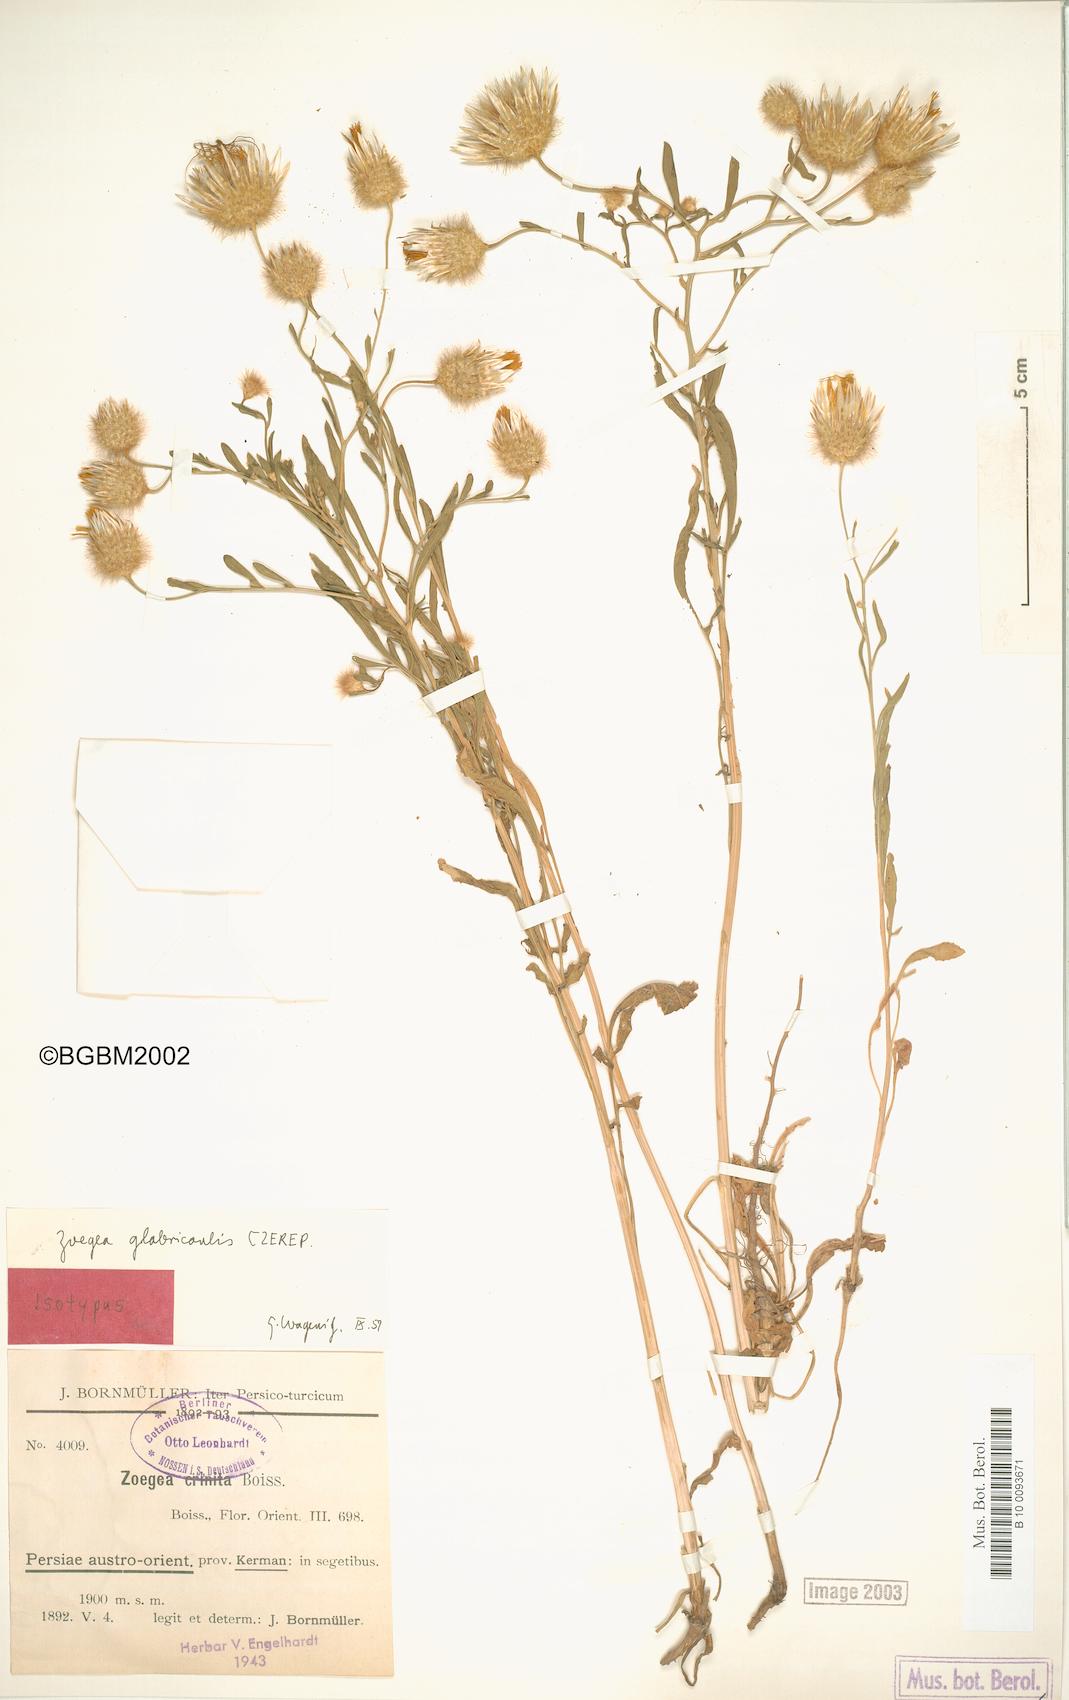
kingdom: Plantae
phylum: Tracheophyta
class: Magnoliopsida
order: Asterales
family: Asteraceae
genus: Zoegea
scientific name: Zoegea crinita
